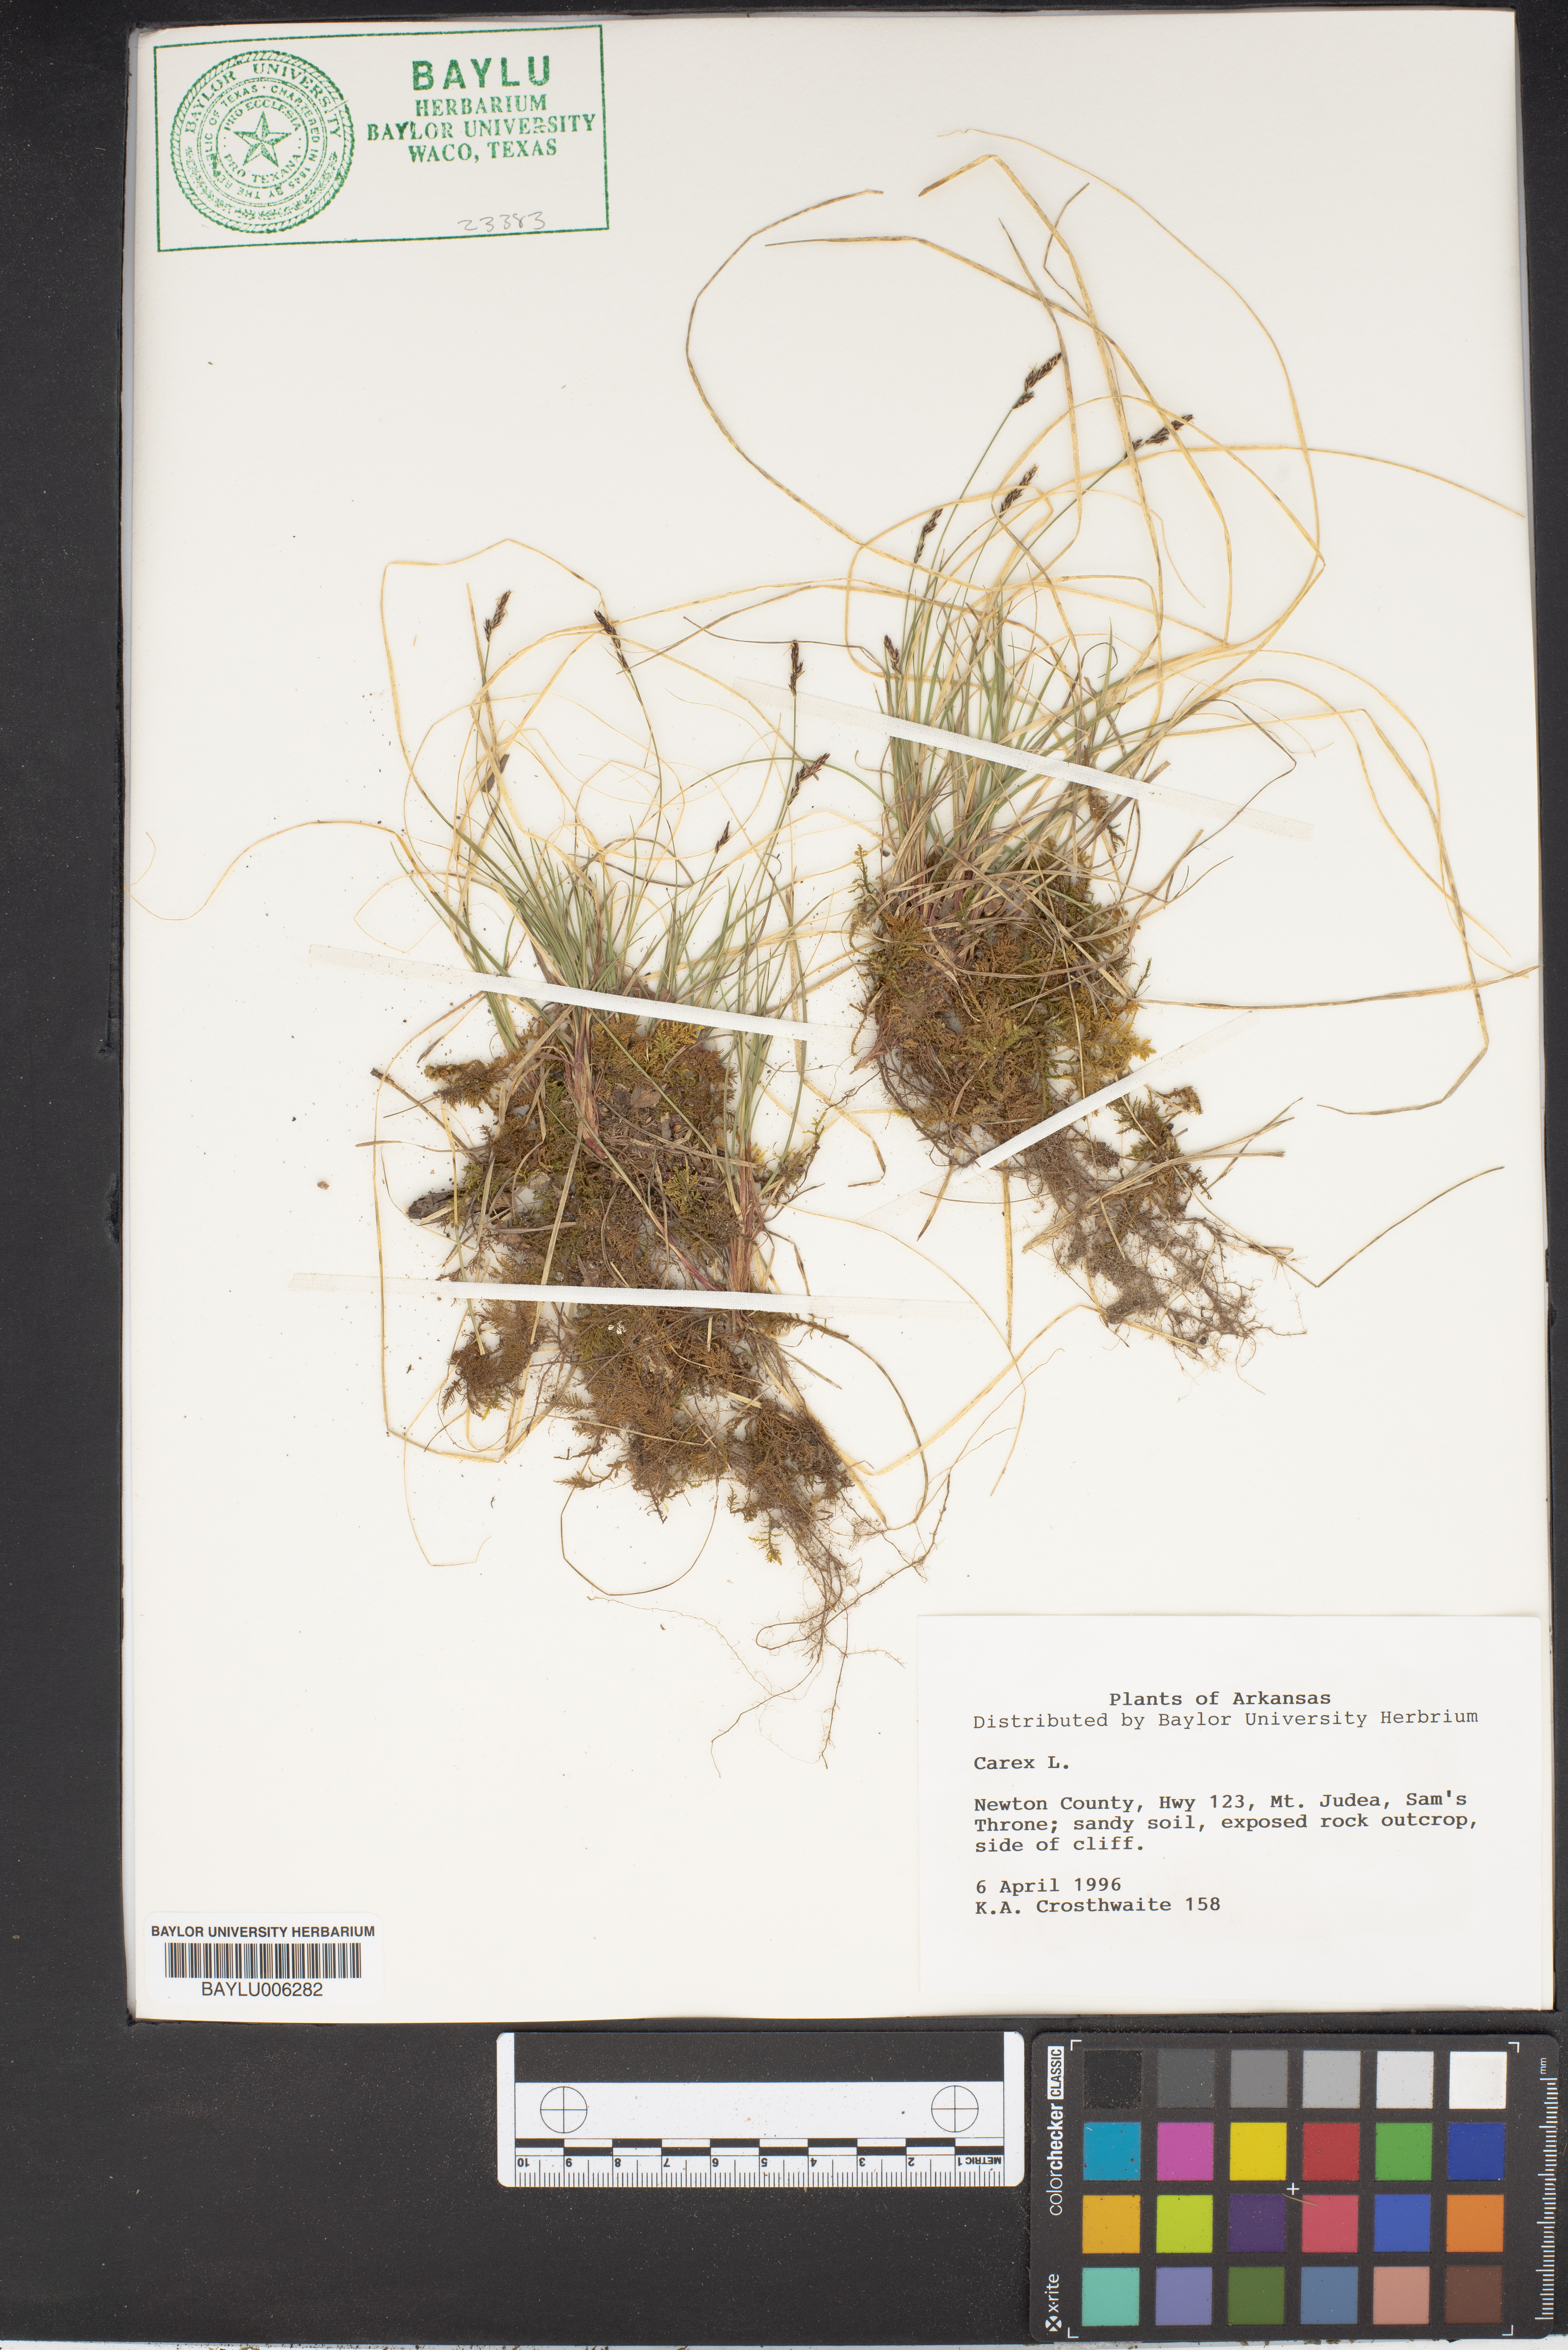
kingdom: Plantae
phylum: Tracheophyta
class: Liliopsida
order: Poales
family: Cyperaceae
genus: Carex
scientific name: Carex
